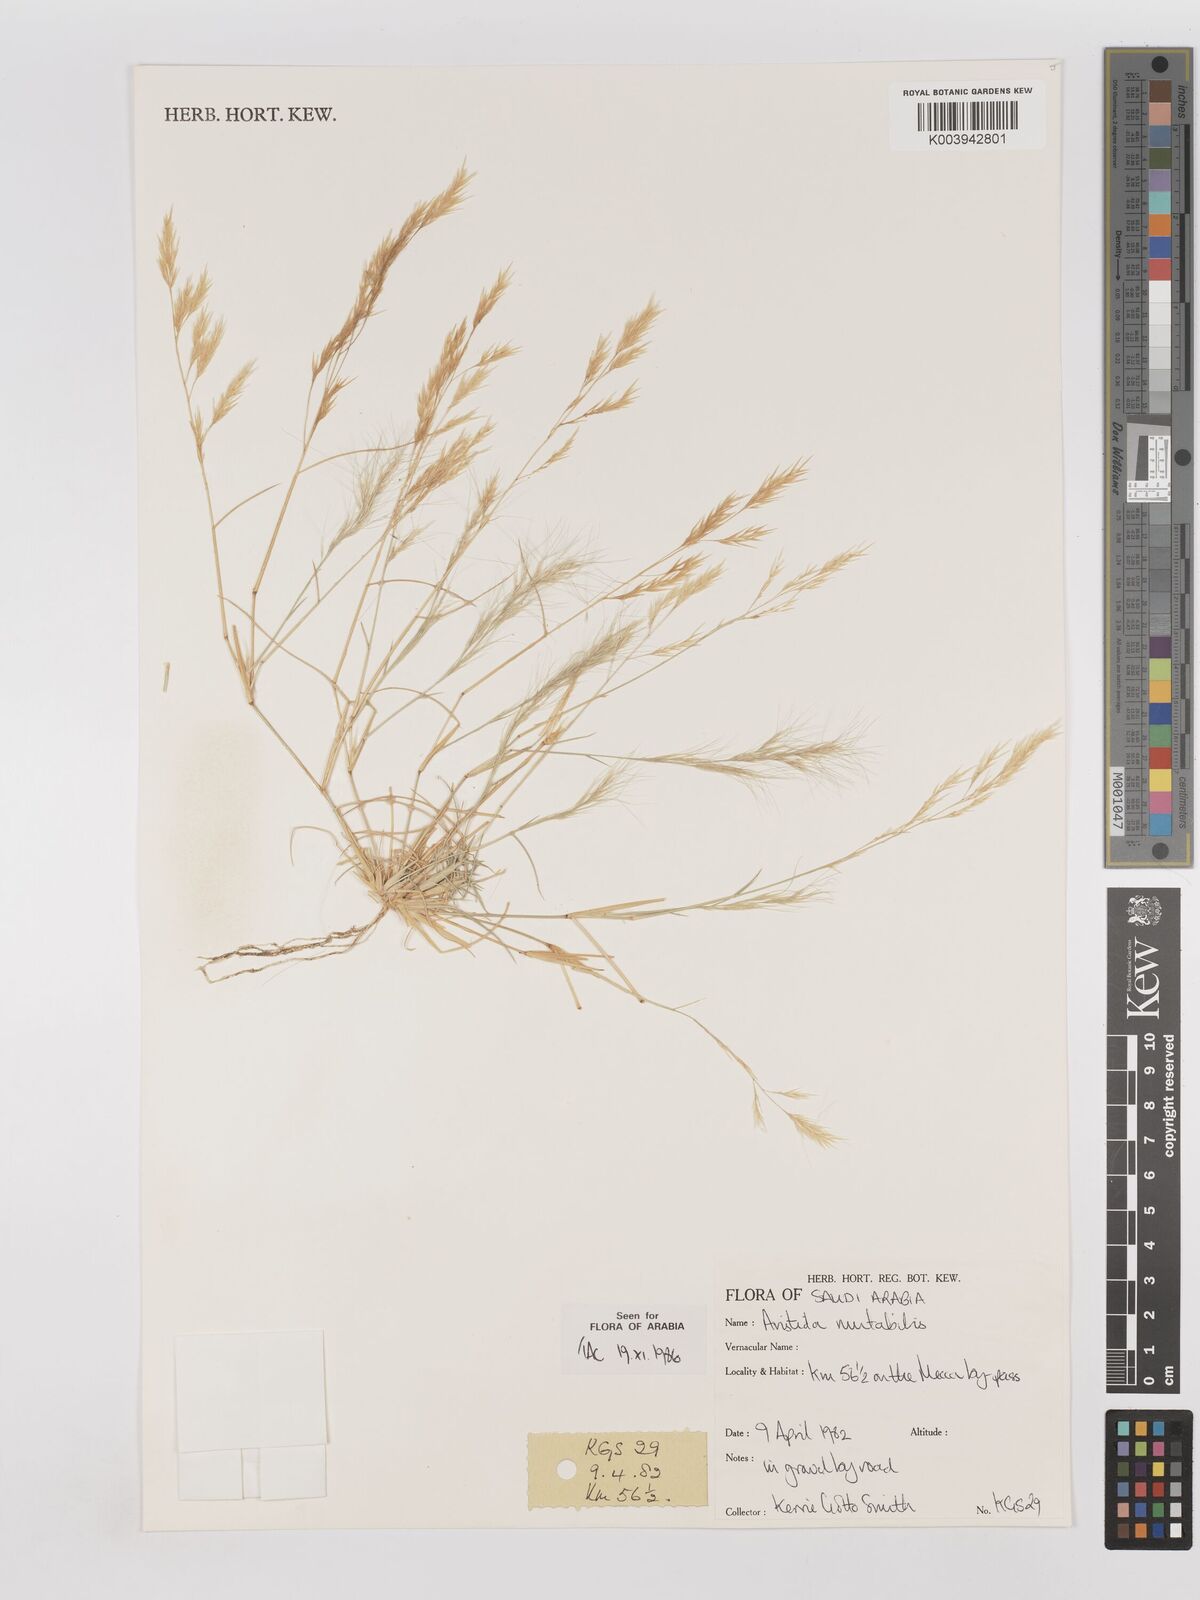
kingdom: Plantae
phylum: Tracheophyta
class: Liliopsida
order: Poales
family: Poaceae
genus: Aristida
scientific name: Aristida mutabilis
